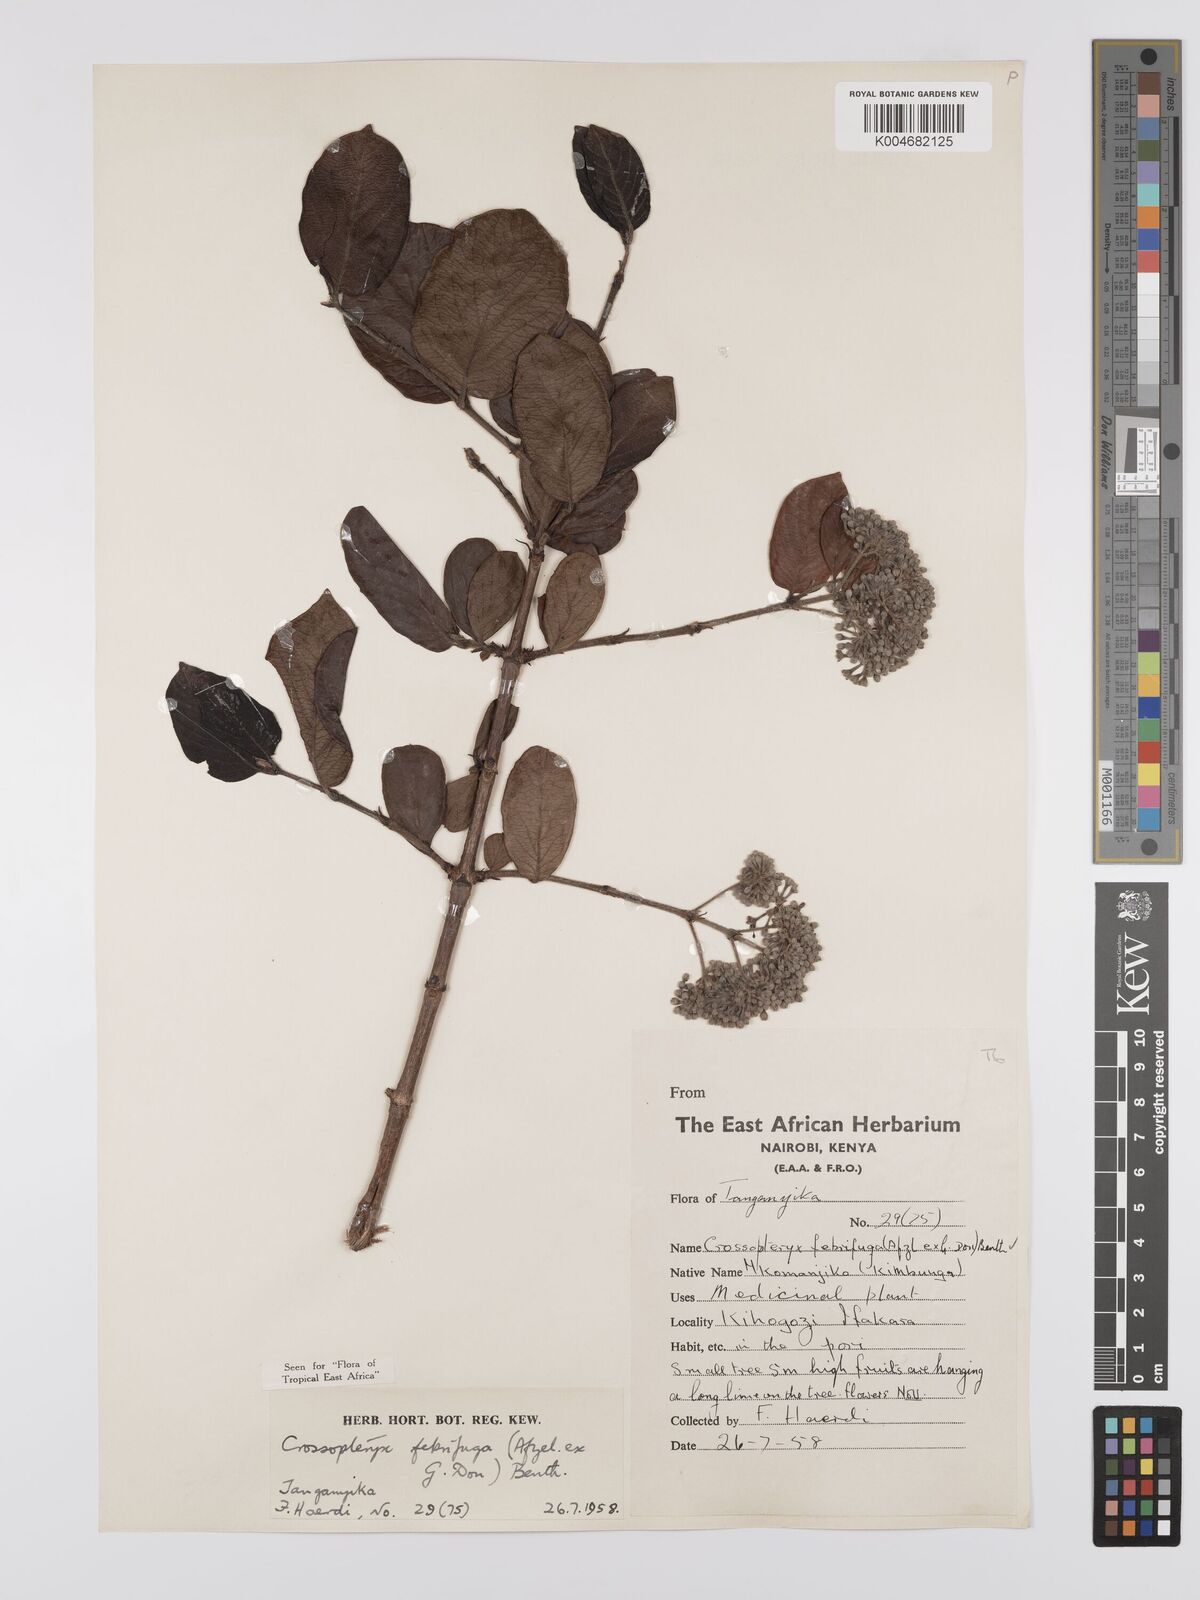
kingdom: Plantae
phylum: Tracheophyta
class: Magnoliopsida
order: Gentianales
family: Rubiaceae
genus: Crossopteryx
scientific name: Crossopteryx febrifuga
